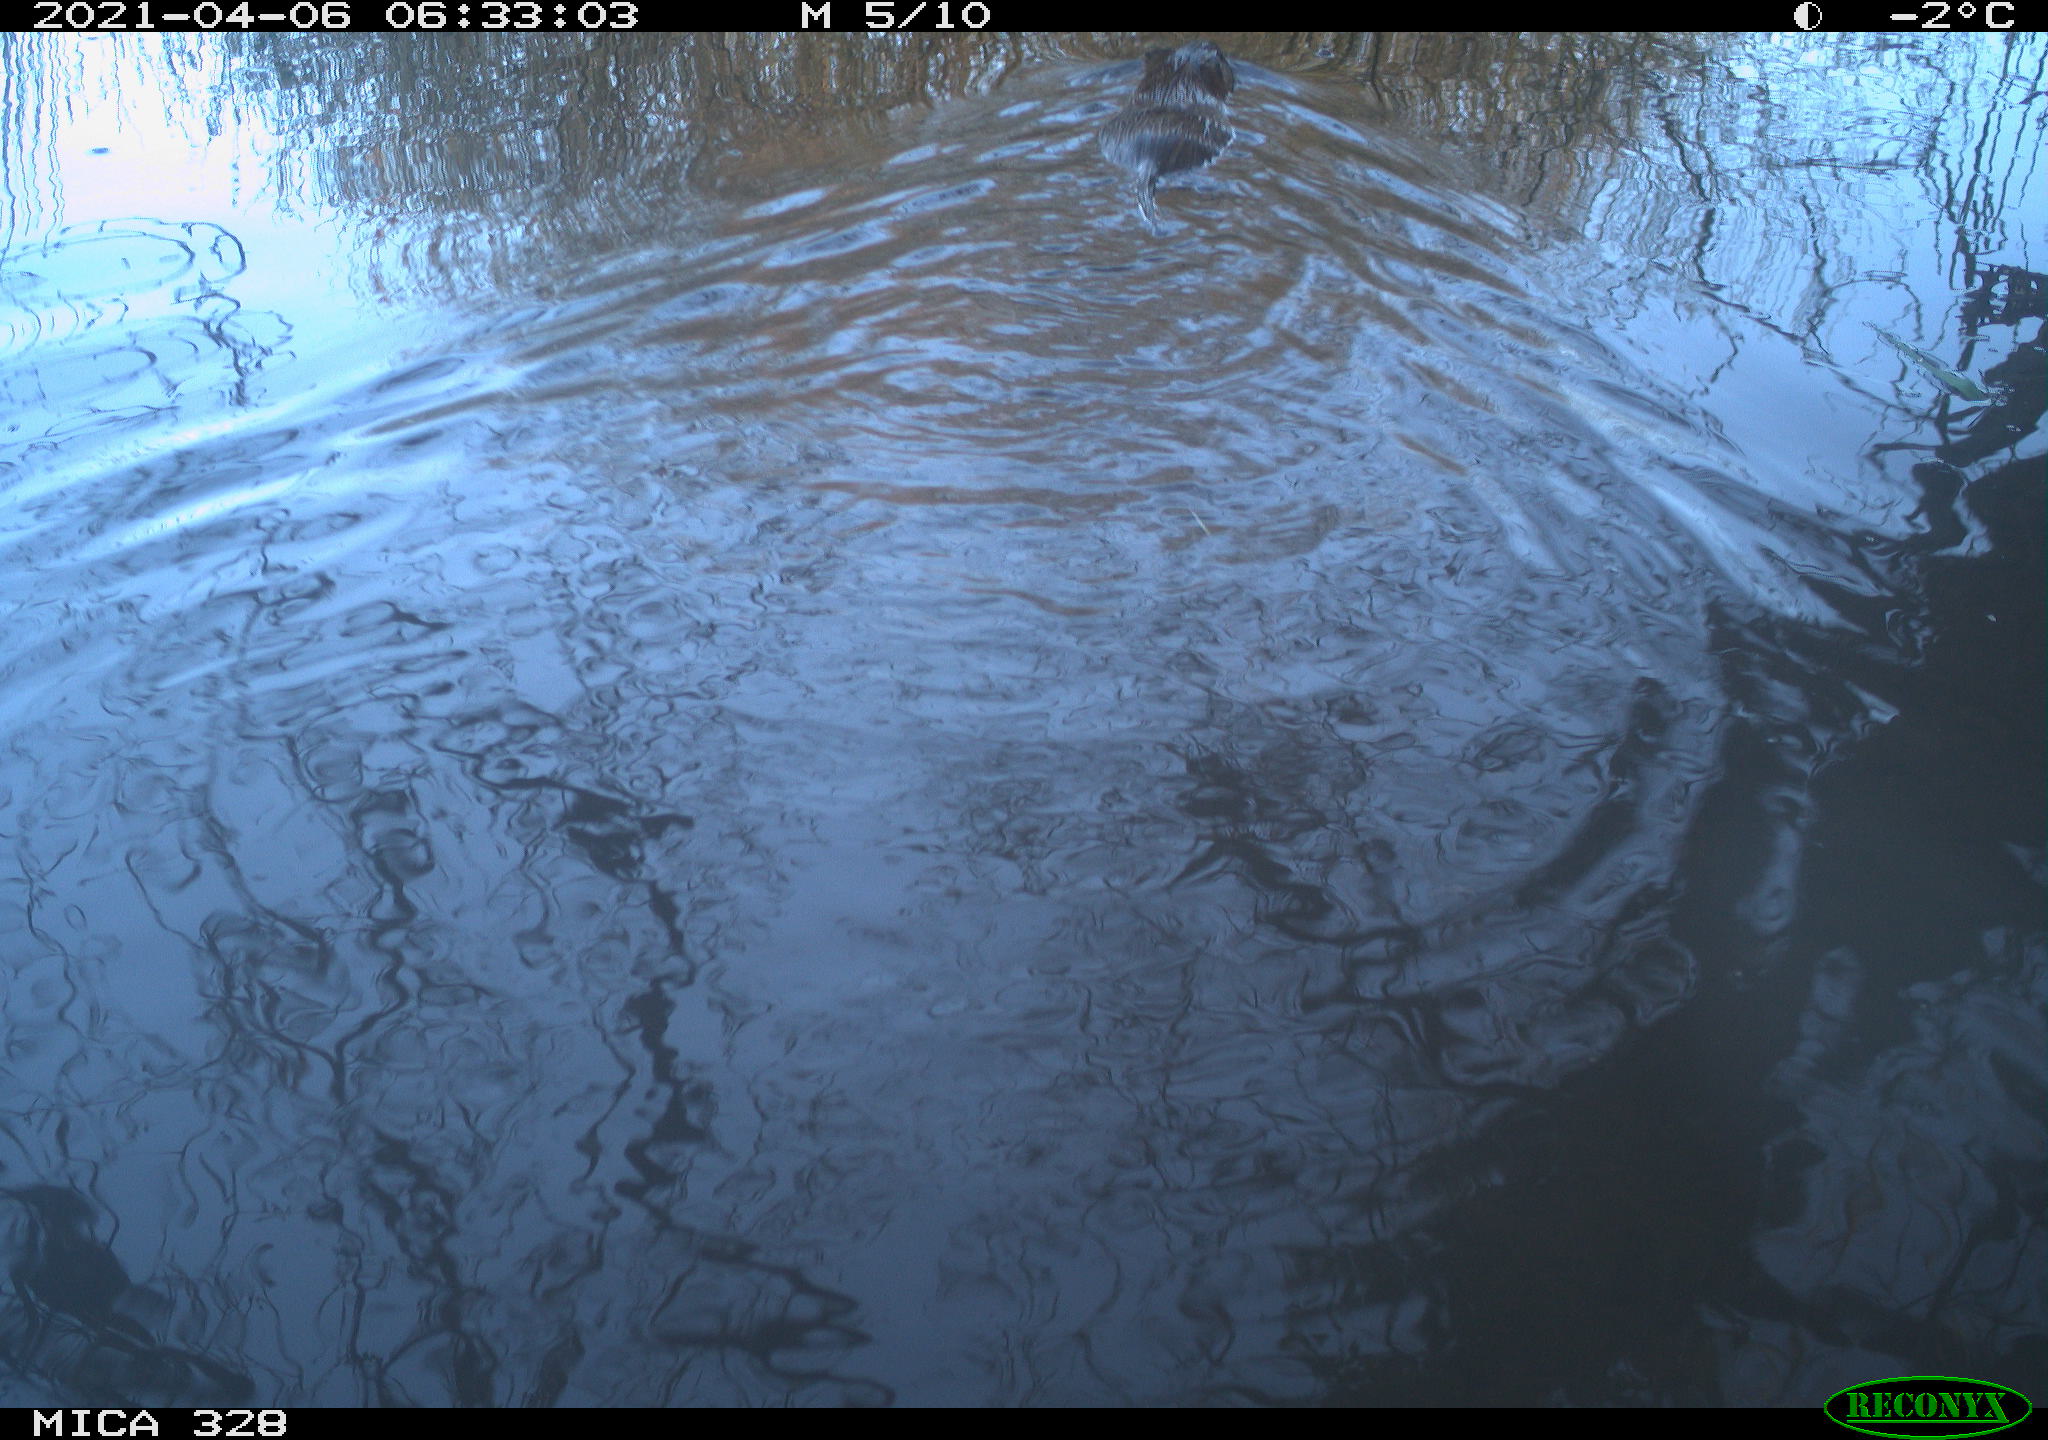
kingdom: Animalia
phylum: Chordata
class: Mammalia
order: Rodentia
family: Cricetidae
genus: Ondatra
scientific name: Ondatra zibethicus
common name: Muskrat
